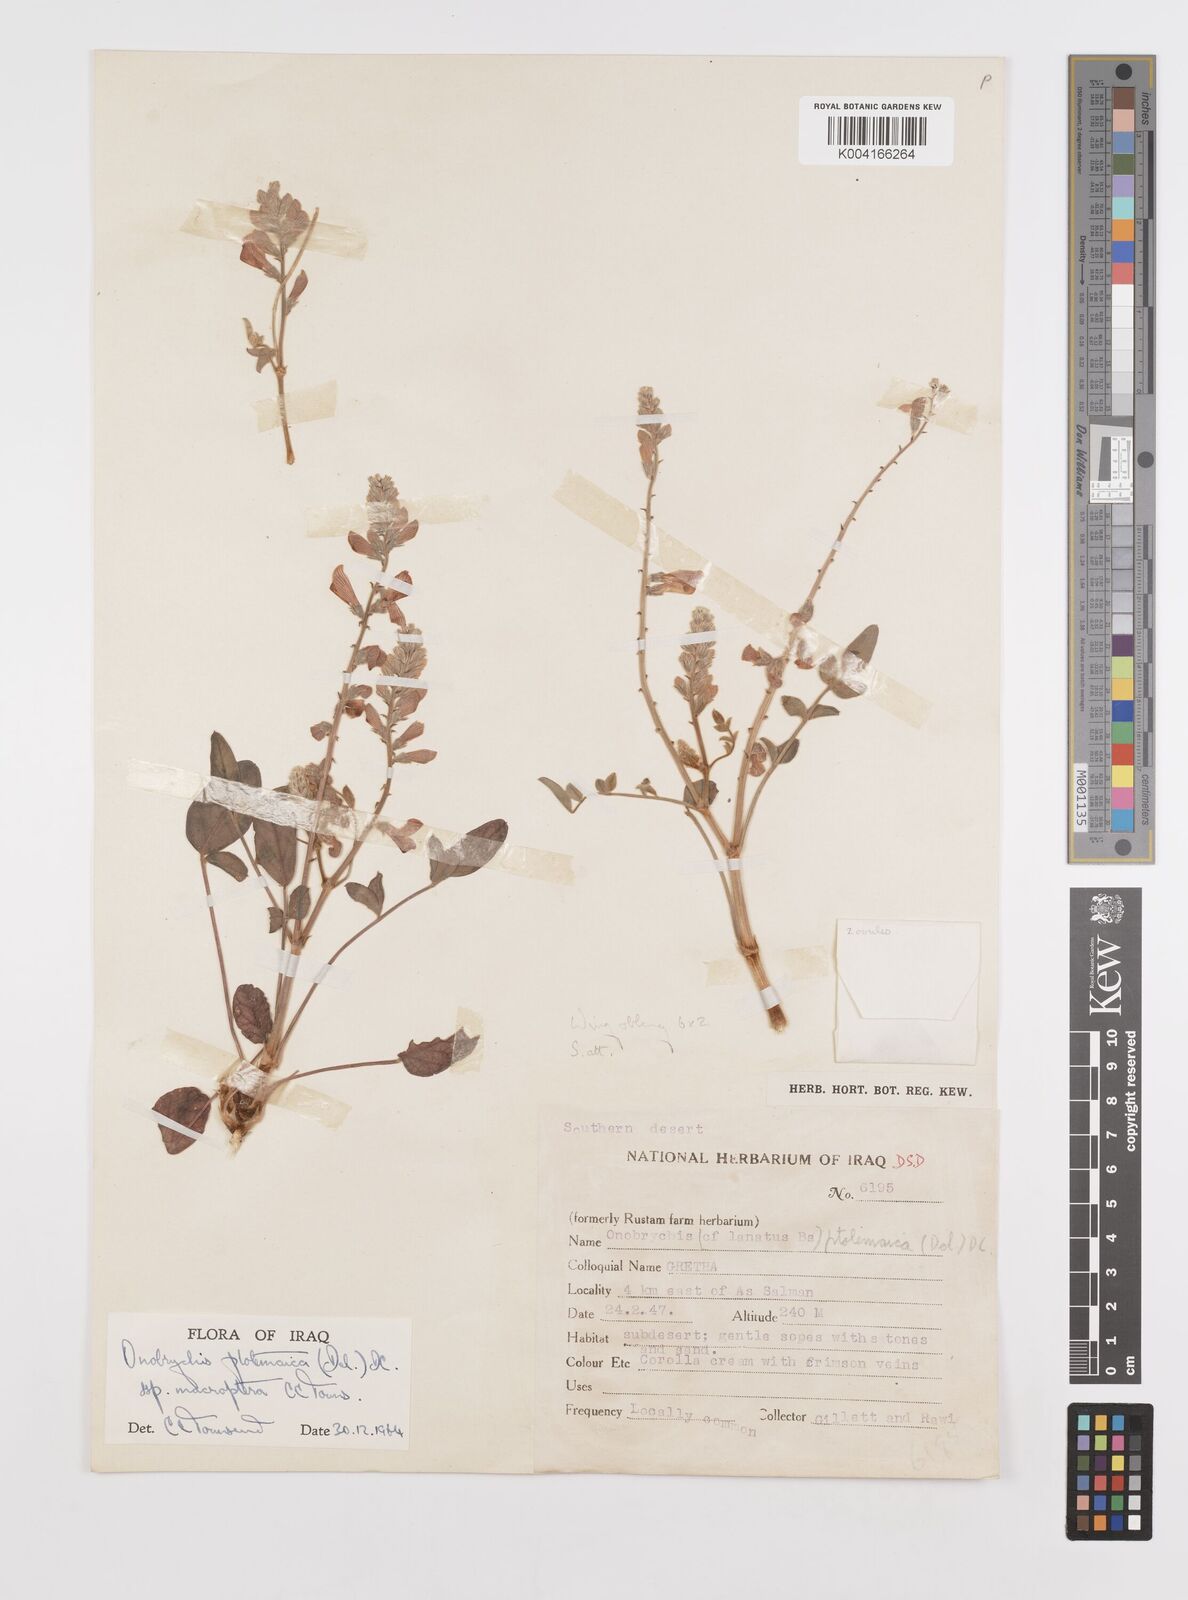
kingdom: Plantae
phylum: Tracheophyta
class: Magnoliopsida
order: Fabales
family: Fabaceae
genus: Onobrychis
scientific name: Onobrychis ptolemaica
